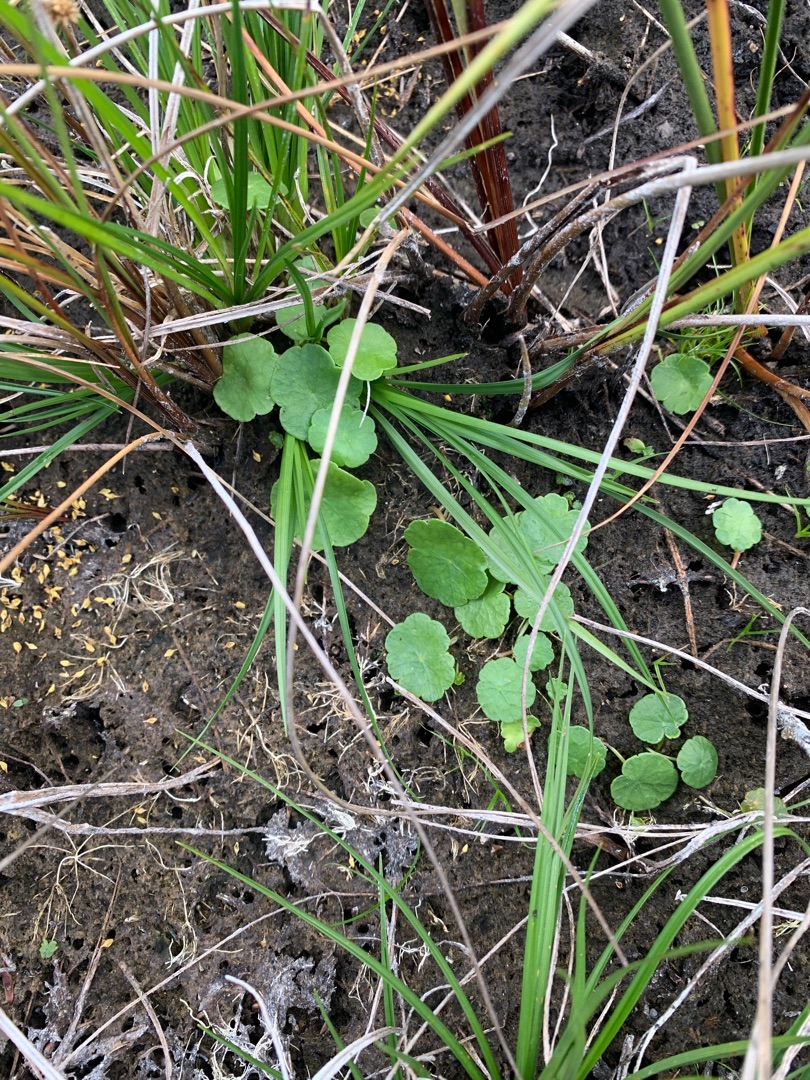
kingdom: Plantae
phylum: Tracheophyta
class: Magnoliopsida
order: Apiales
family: Araliaceae
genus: Hydrocotyle
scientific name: Hydrocotyle vulgaris
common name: Vandnavle
